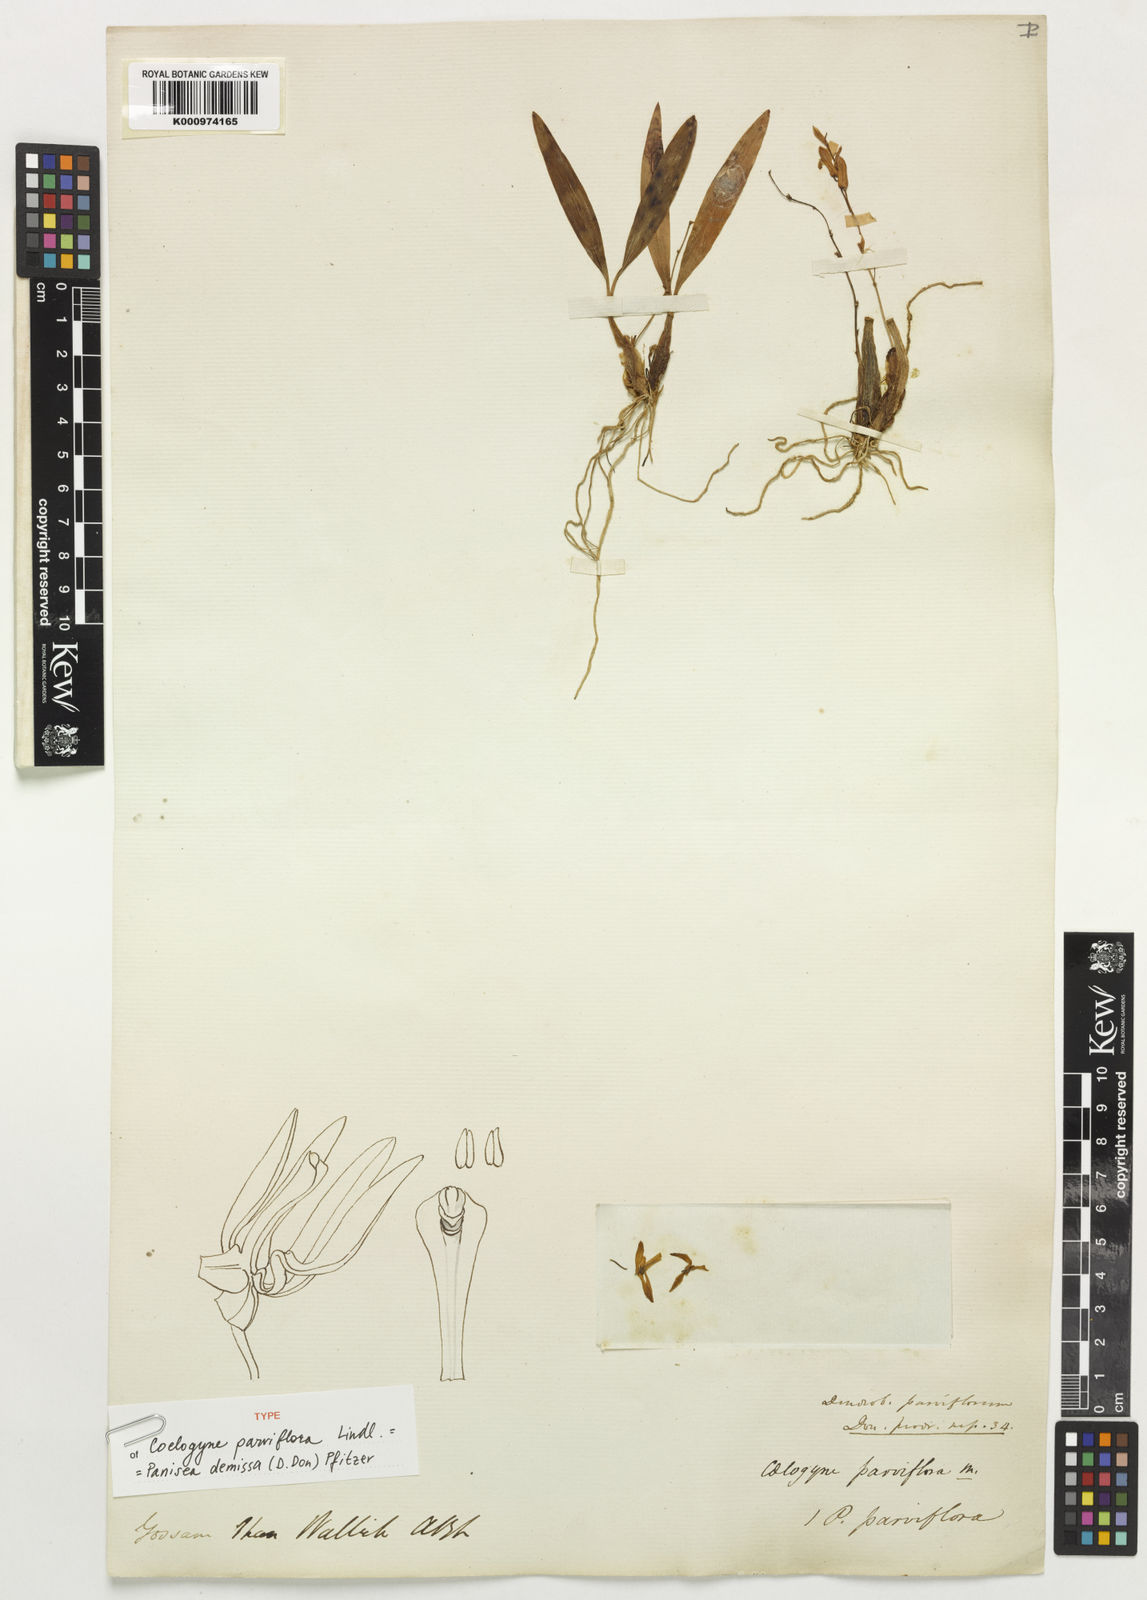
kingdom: Plantae
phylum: Tracheophyta
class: Liliopsida
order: Asparagales
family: Orchidaceae
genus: Coelogyne
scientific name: Coelogyne demissa
